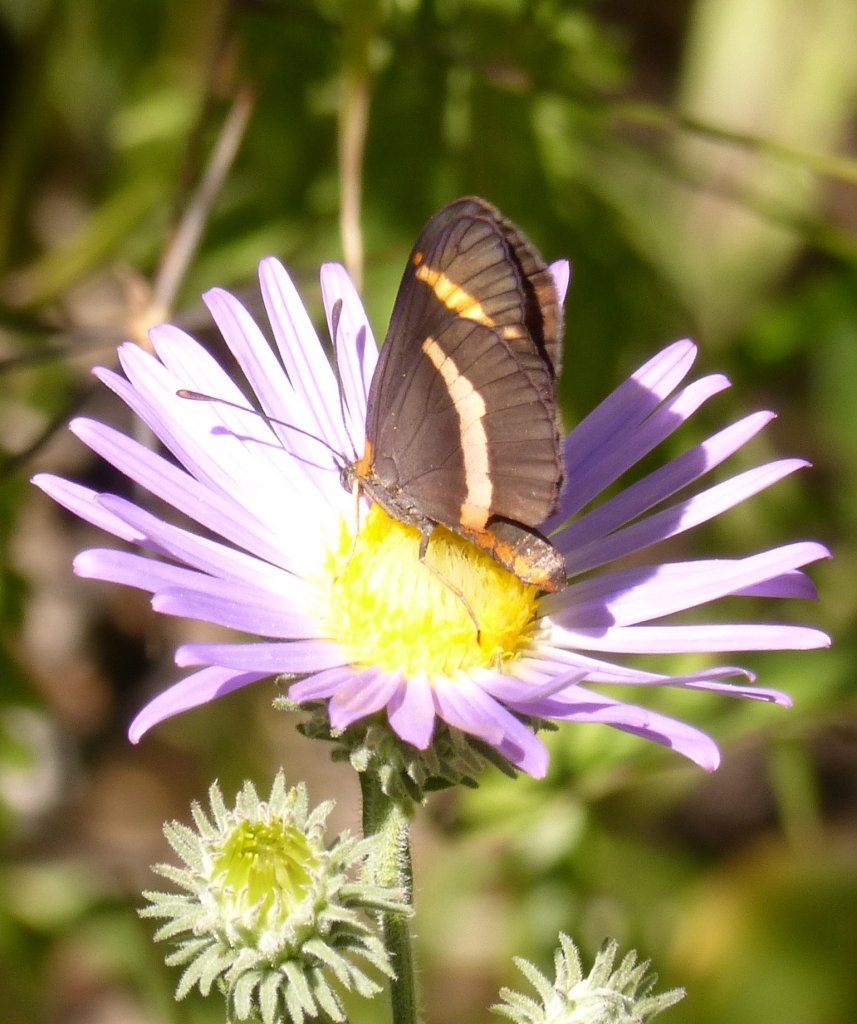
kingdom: Animalia
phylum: Arthropoda
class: Insecta
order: Lepidoptera
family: Nymphalidae
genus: Microtia
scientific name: Microtia elva
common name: Elf
